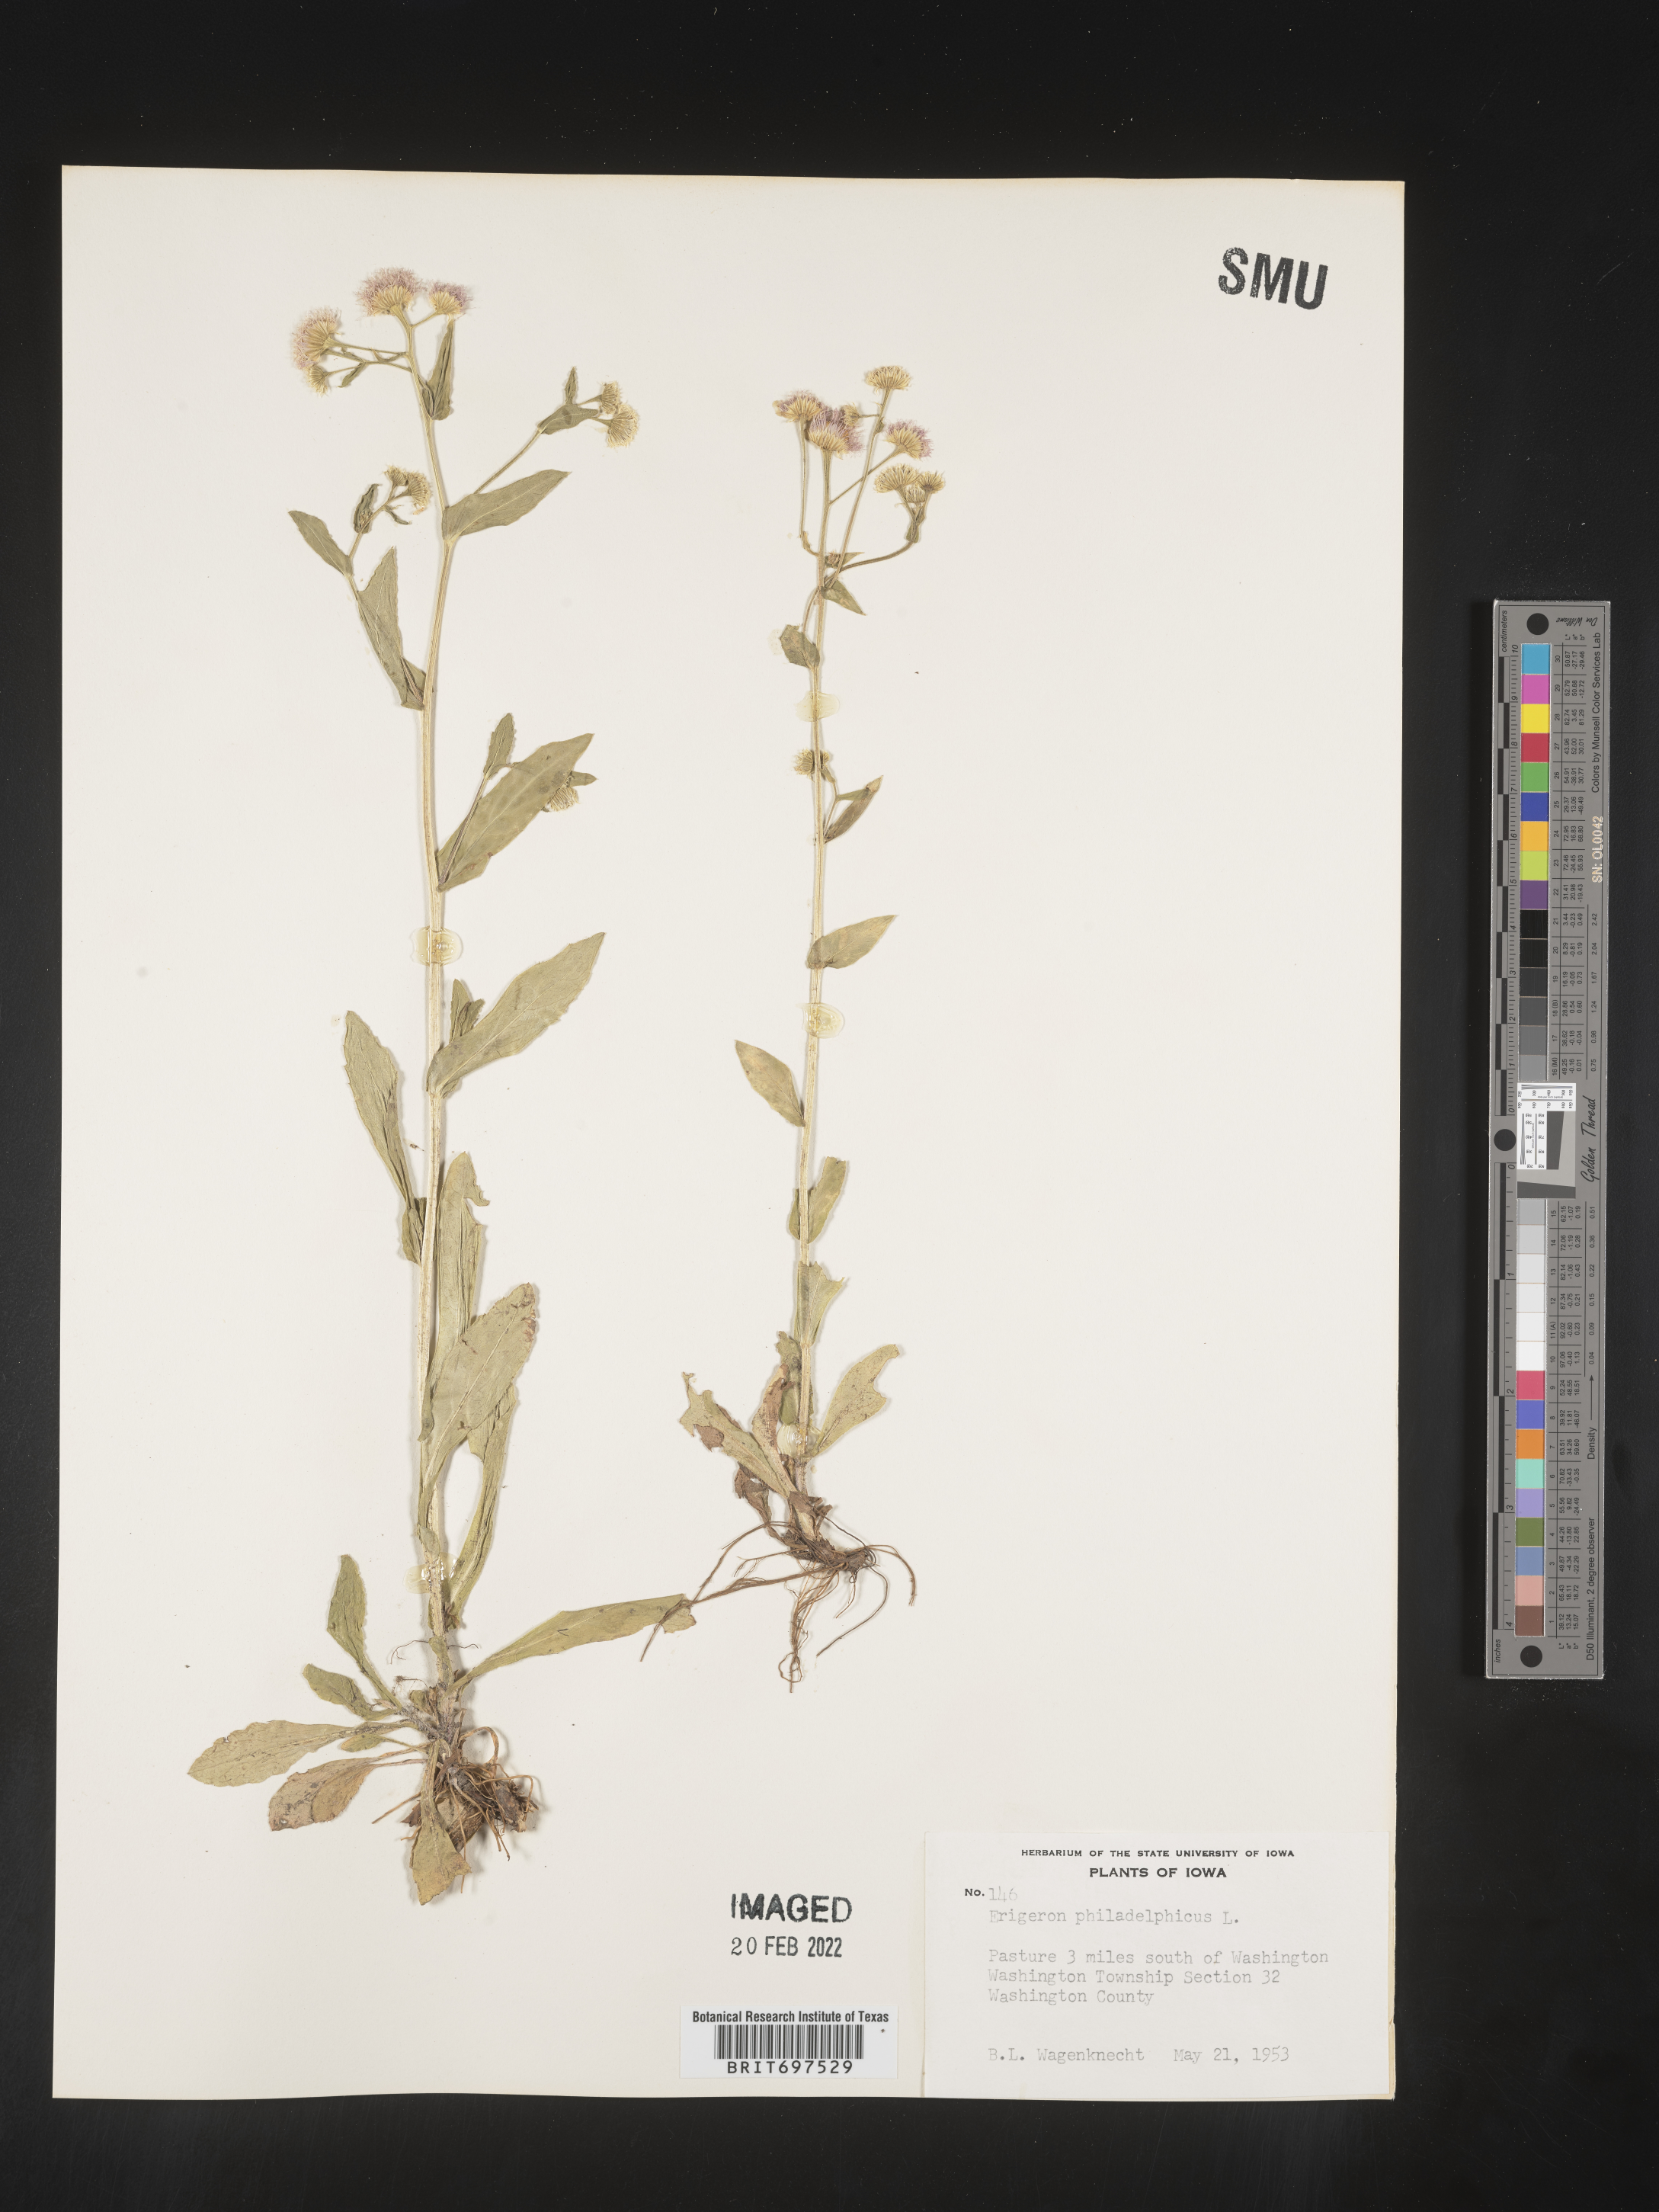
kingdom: Plantae
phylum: Tracheophyta
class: Magnoliopsida
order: Asterales
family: Asteraceae
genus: Erigeron
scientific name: Erigeron philadelphicus
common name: Robin's-plantain
